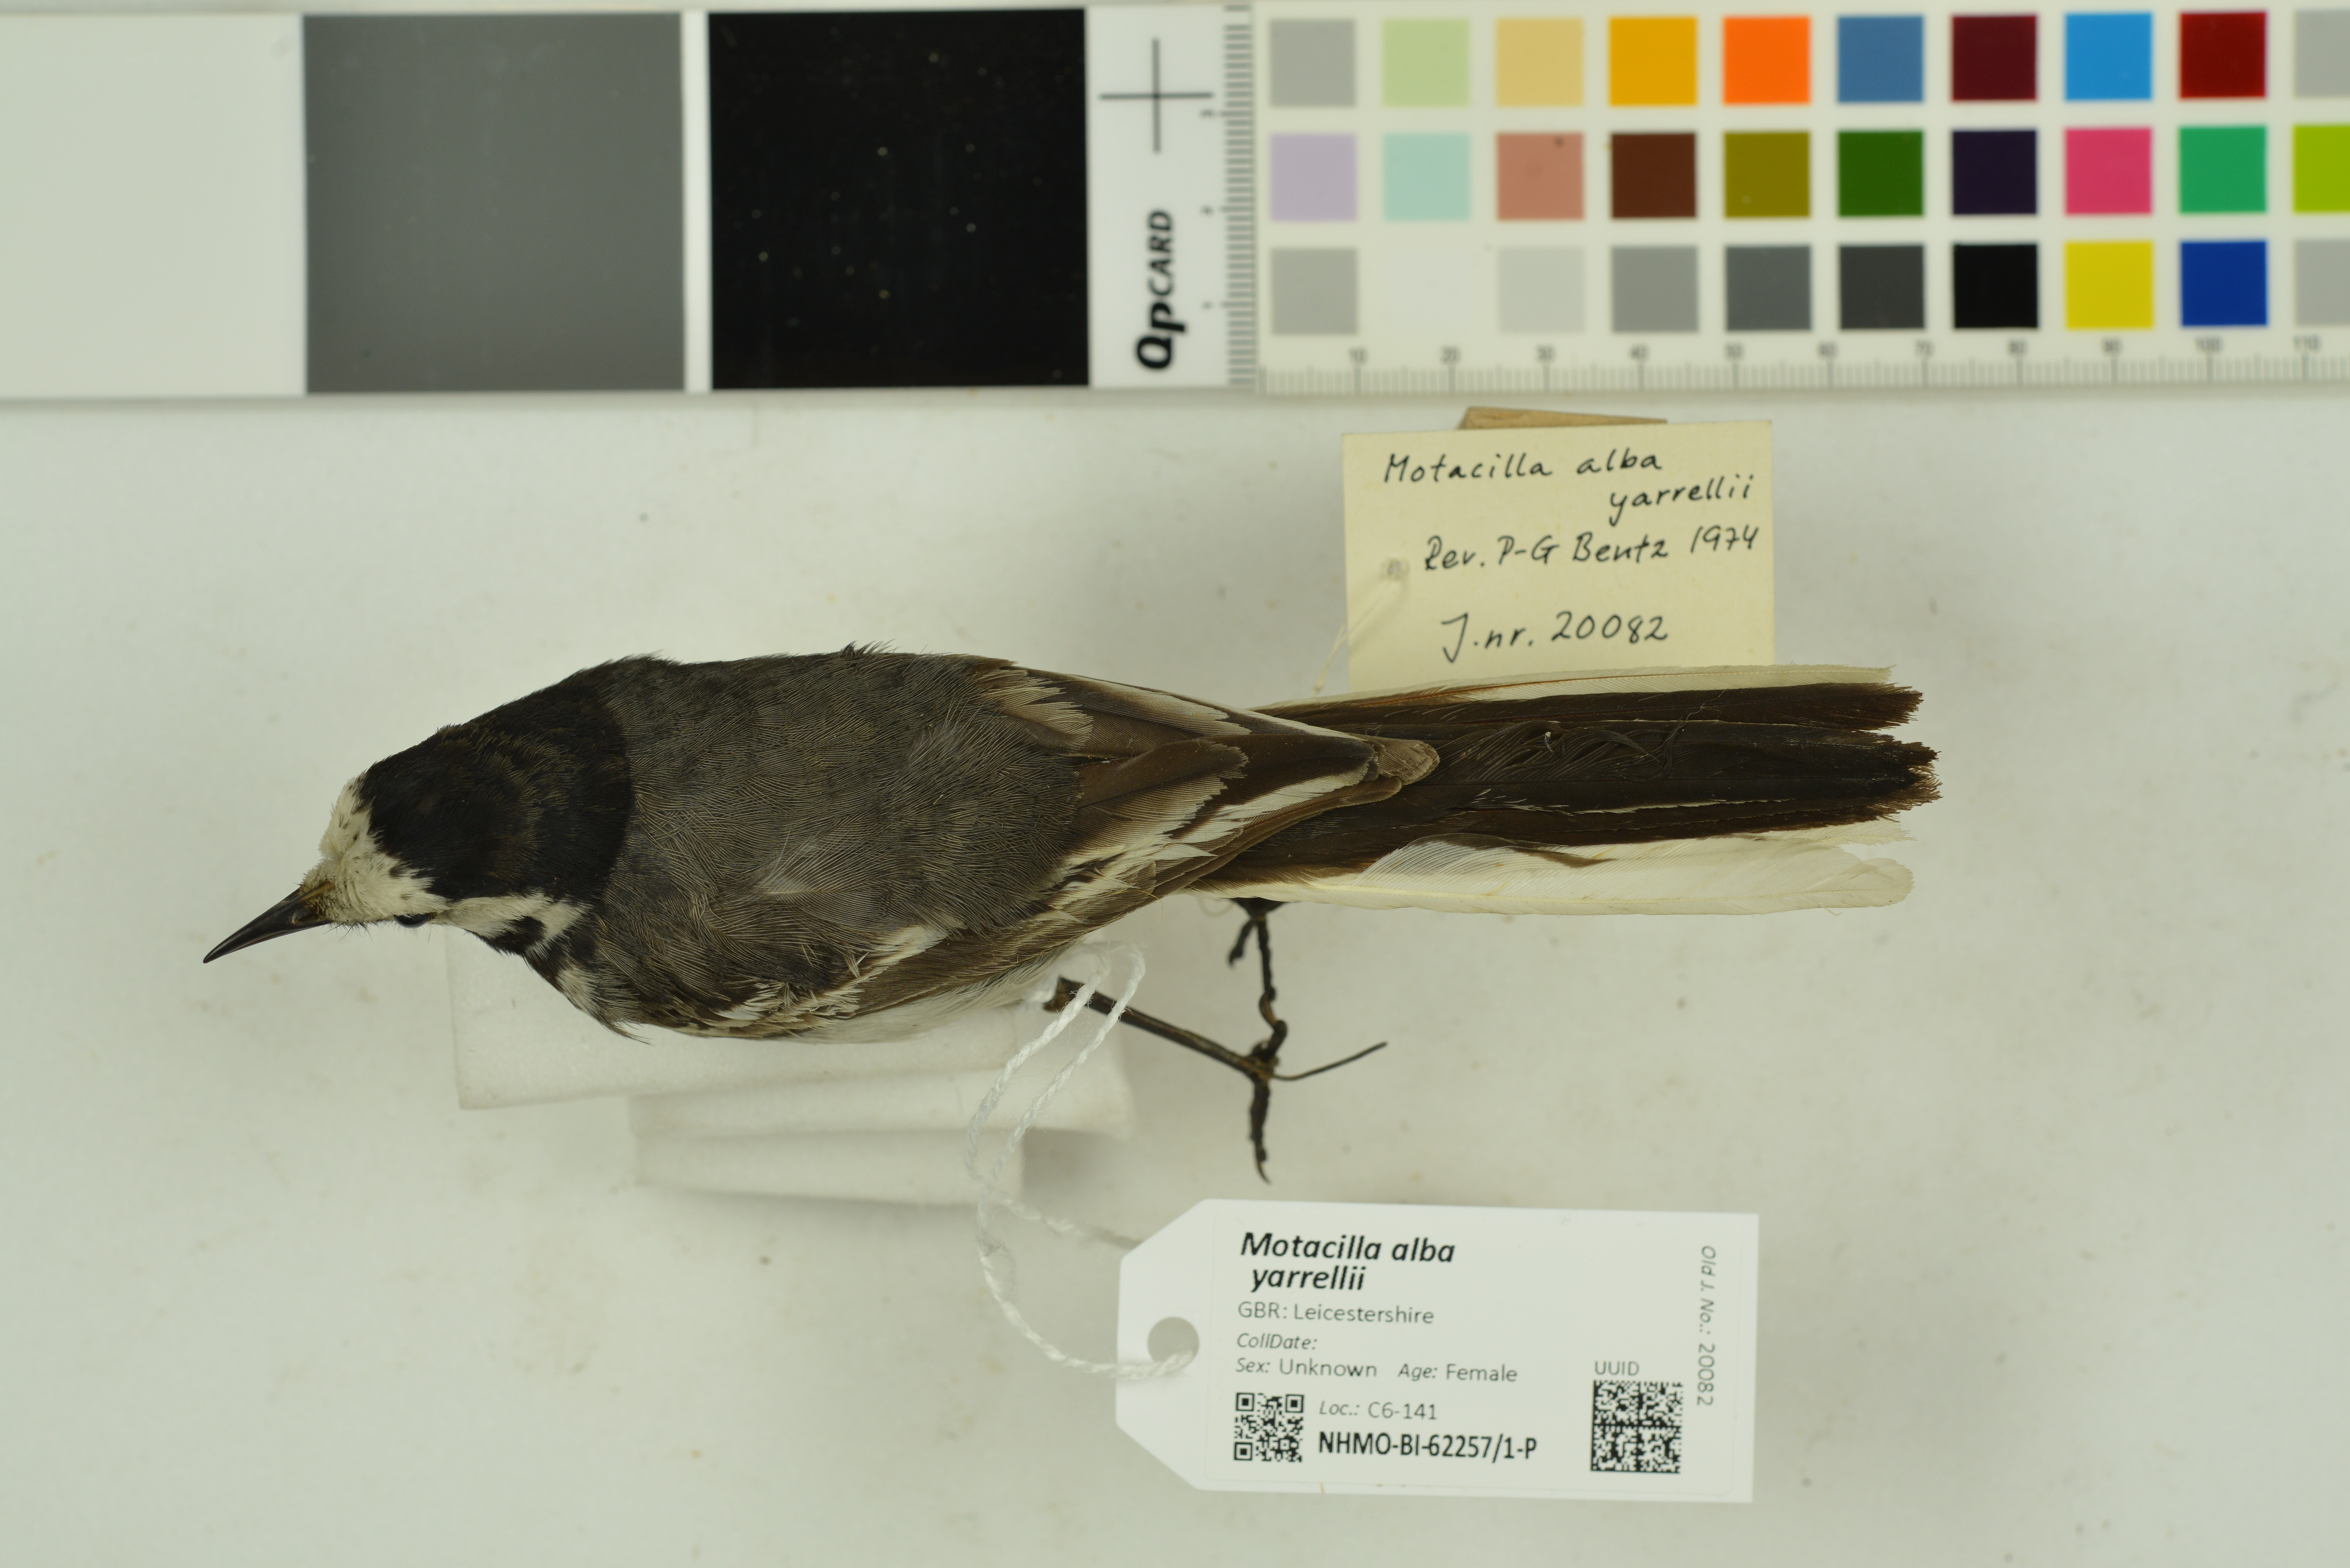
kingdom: Animalia
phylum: Chordata
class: Aves
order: Passeriformes
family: Motacillidae
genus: Motacilla
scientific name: Motacilla alba
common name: White wagtail
